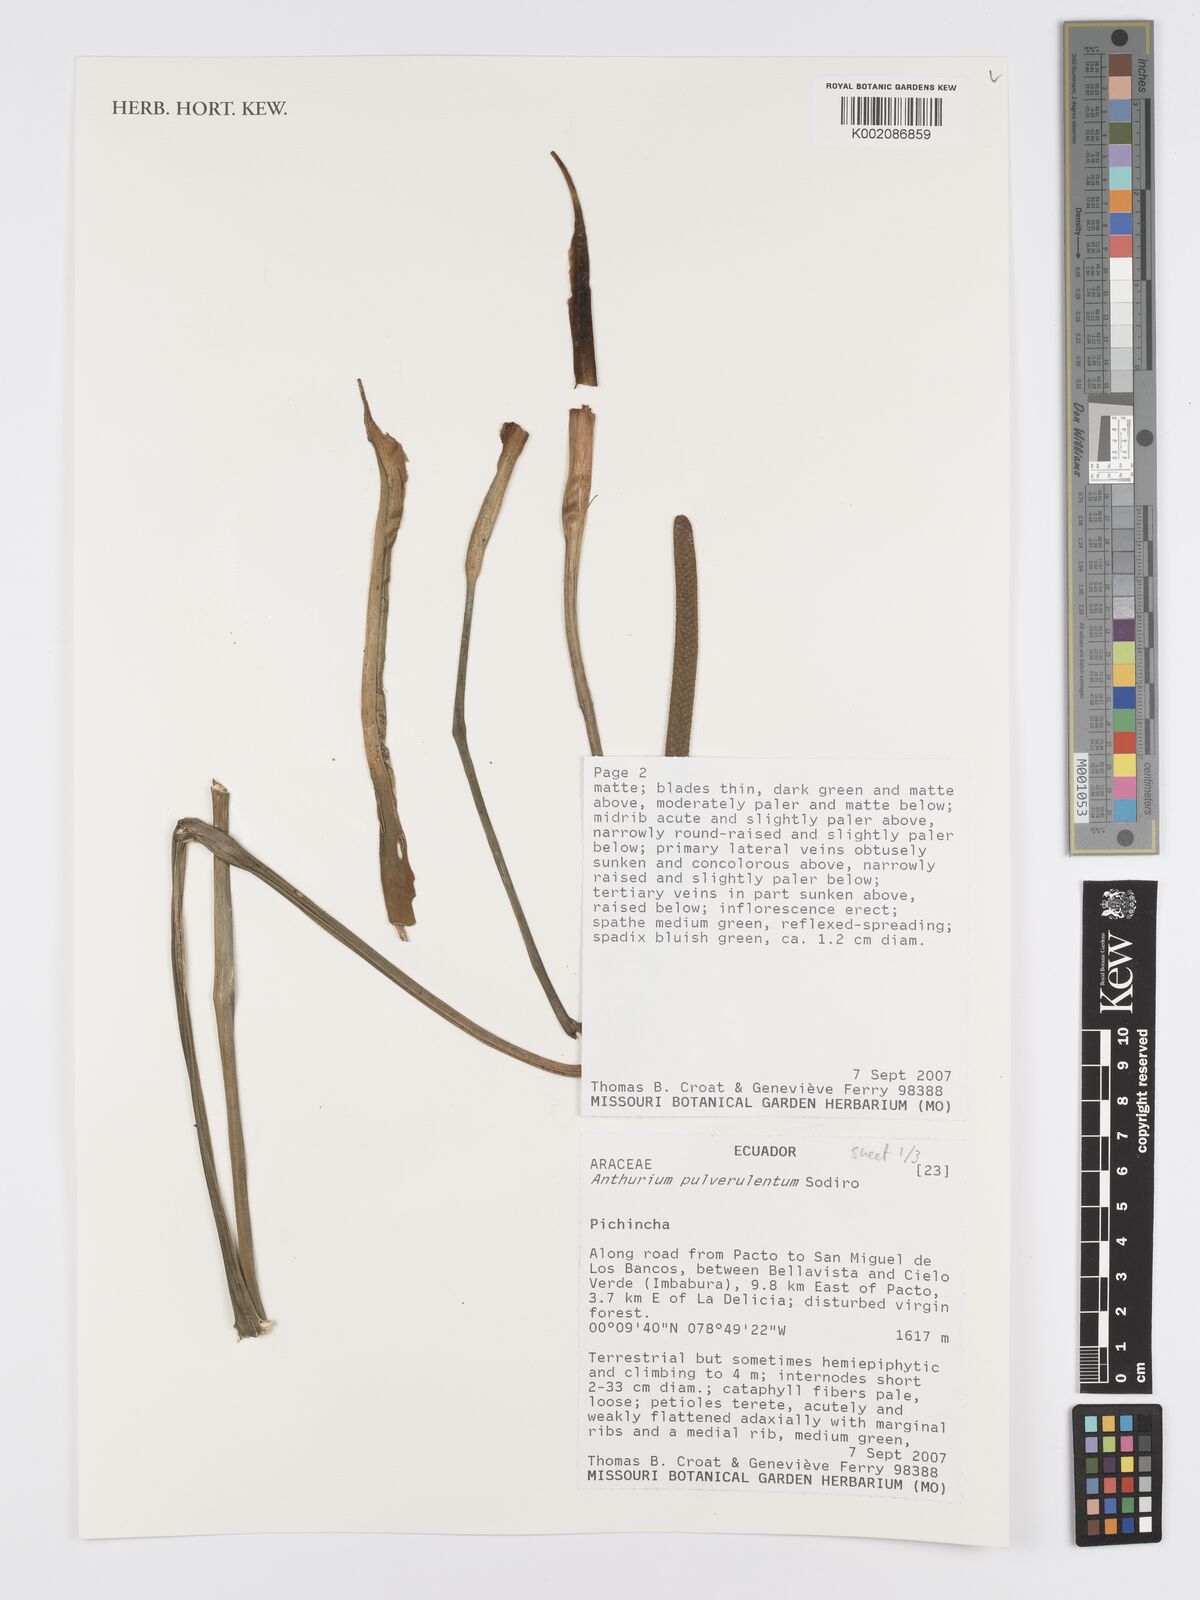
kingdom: Plantae
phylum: Tracheophyta
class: Liliopsida
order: Alismatales
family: Araceae
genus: Anthurium
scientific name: Anthurium pulverulentum
